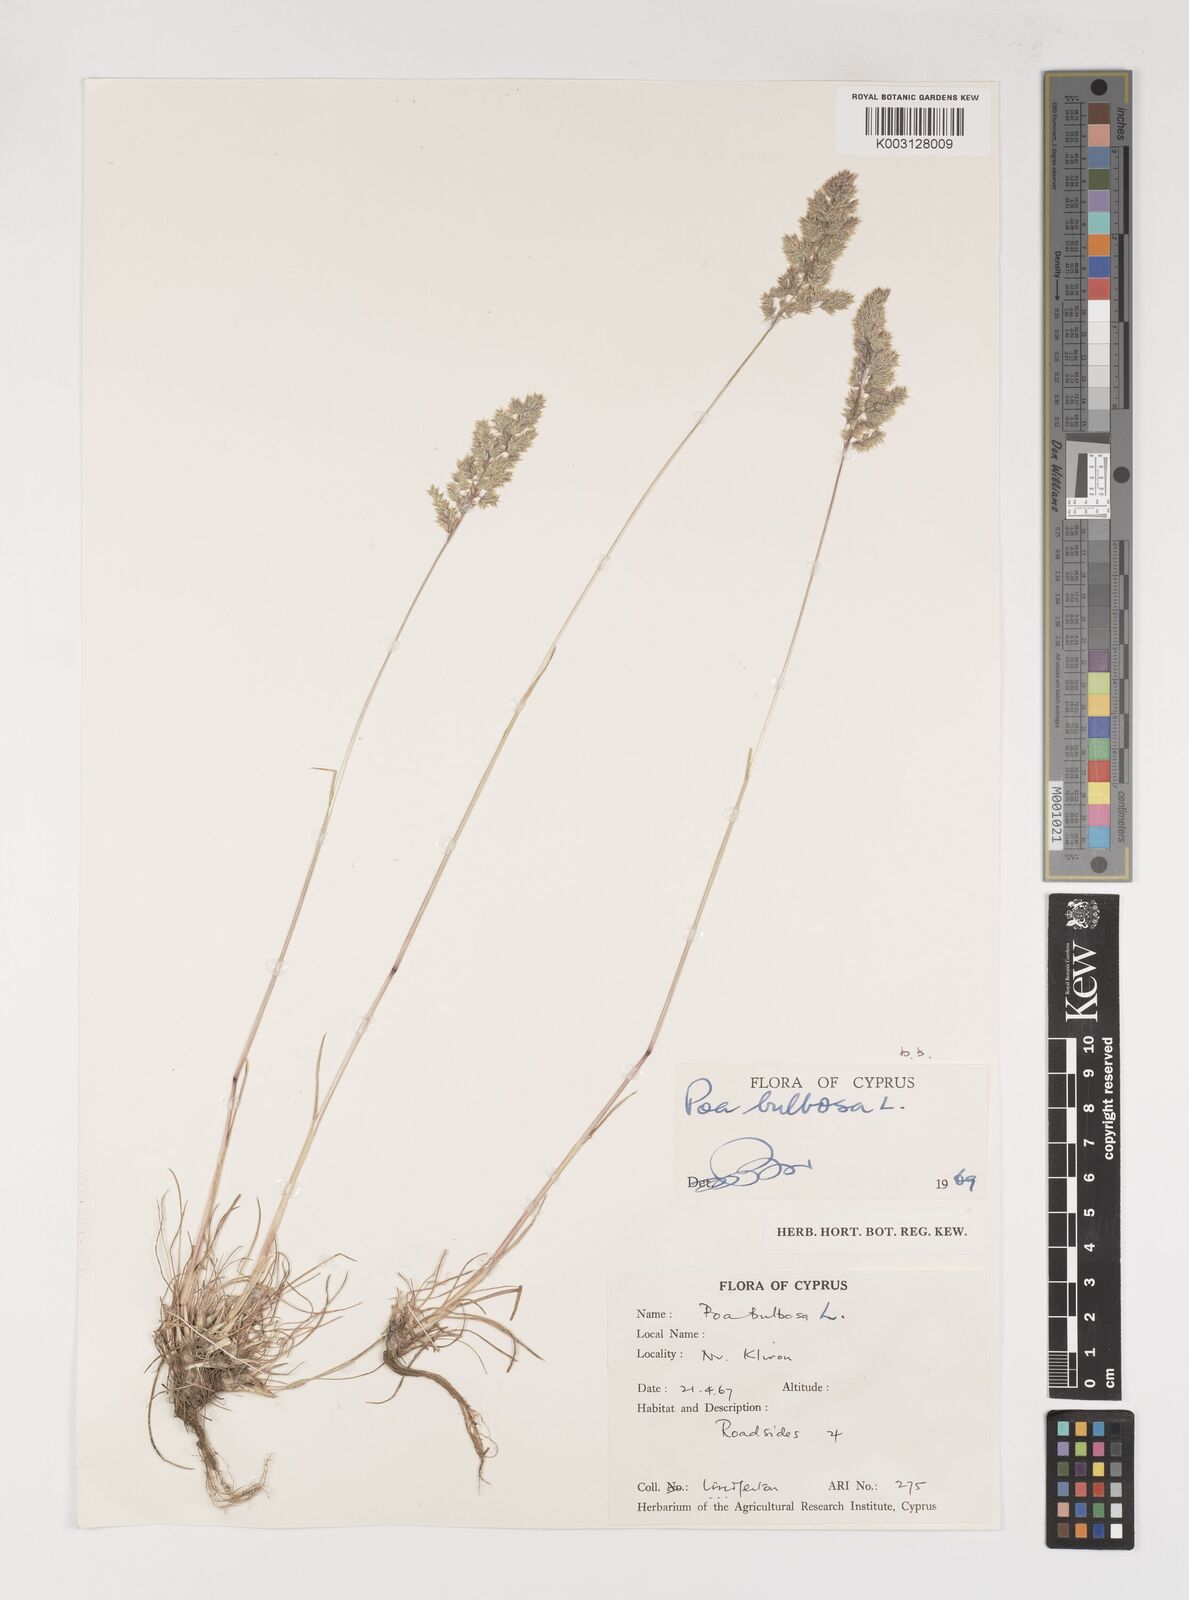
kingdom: Plantae
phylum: Tracheophyta
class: Liliopsida
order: Poales
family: Poaceae
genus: Poa
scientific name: Poa bulbosa
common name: Bulbous bluegrass
